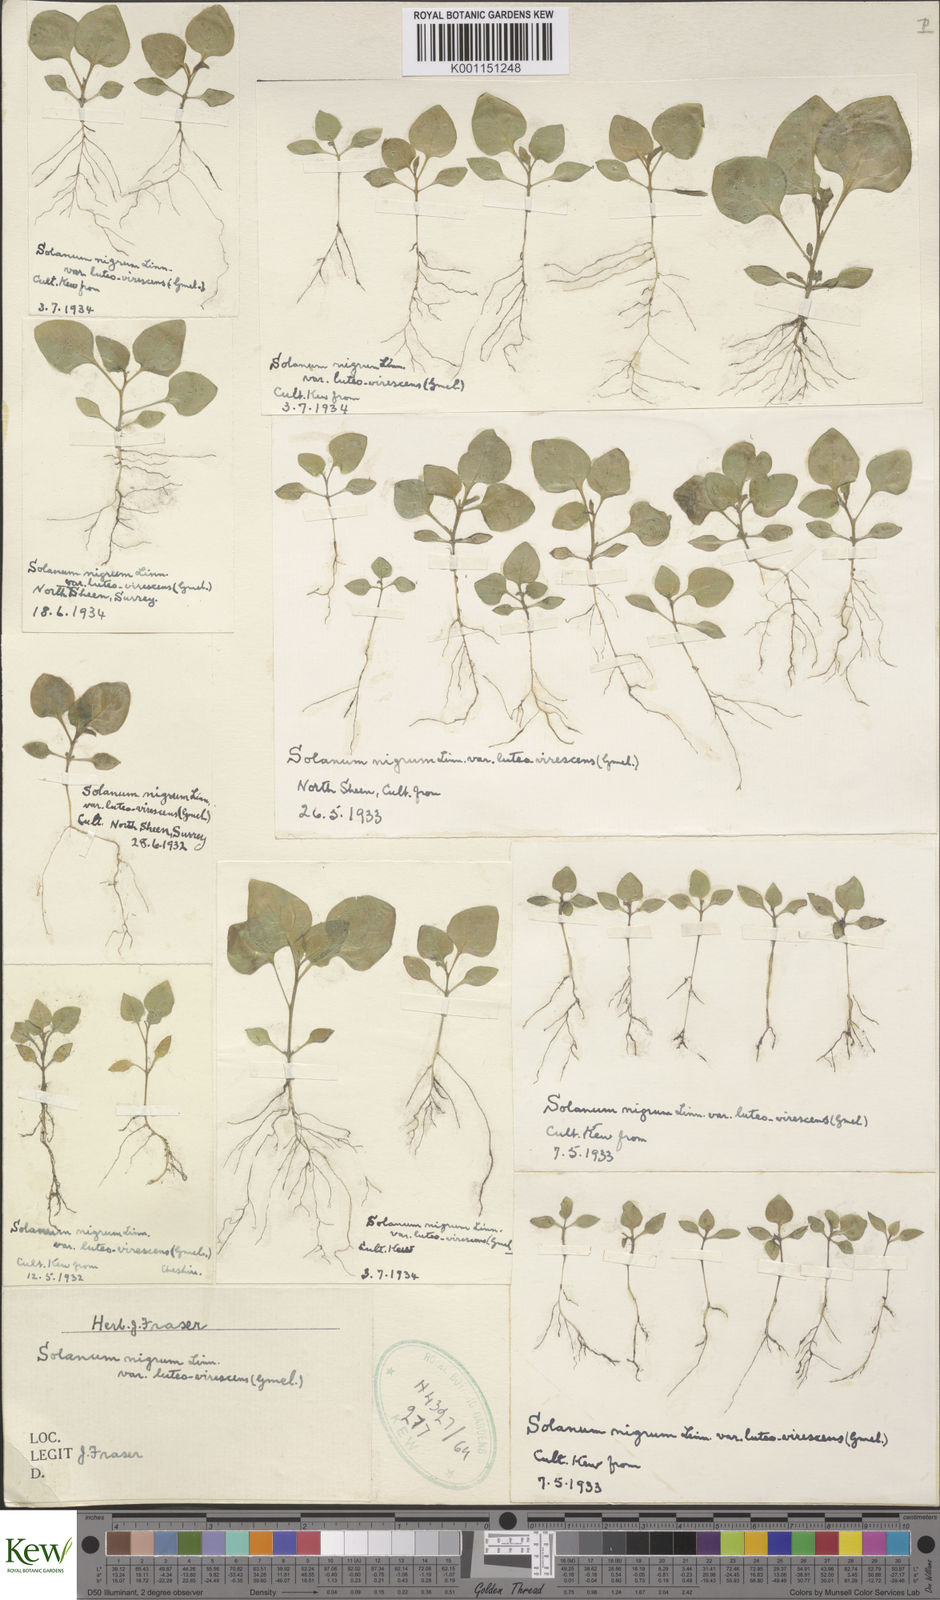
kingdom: Plantae
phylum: Tracheophyta
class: Magnoliopsida
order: Solanales
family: Solanaceae
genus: Solanum
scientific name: Solanum nigrum
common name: Black nightshade
